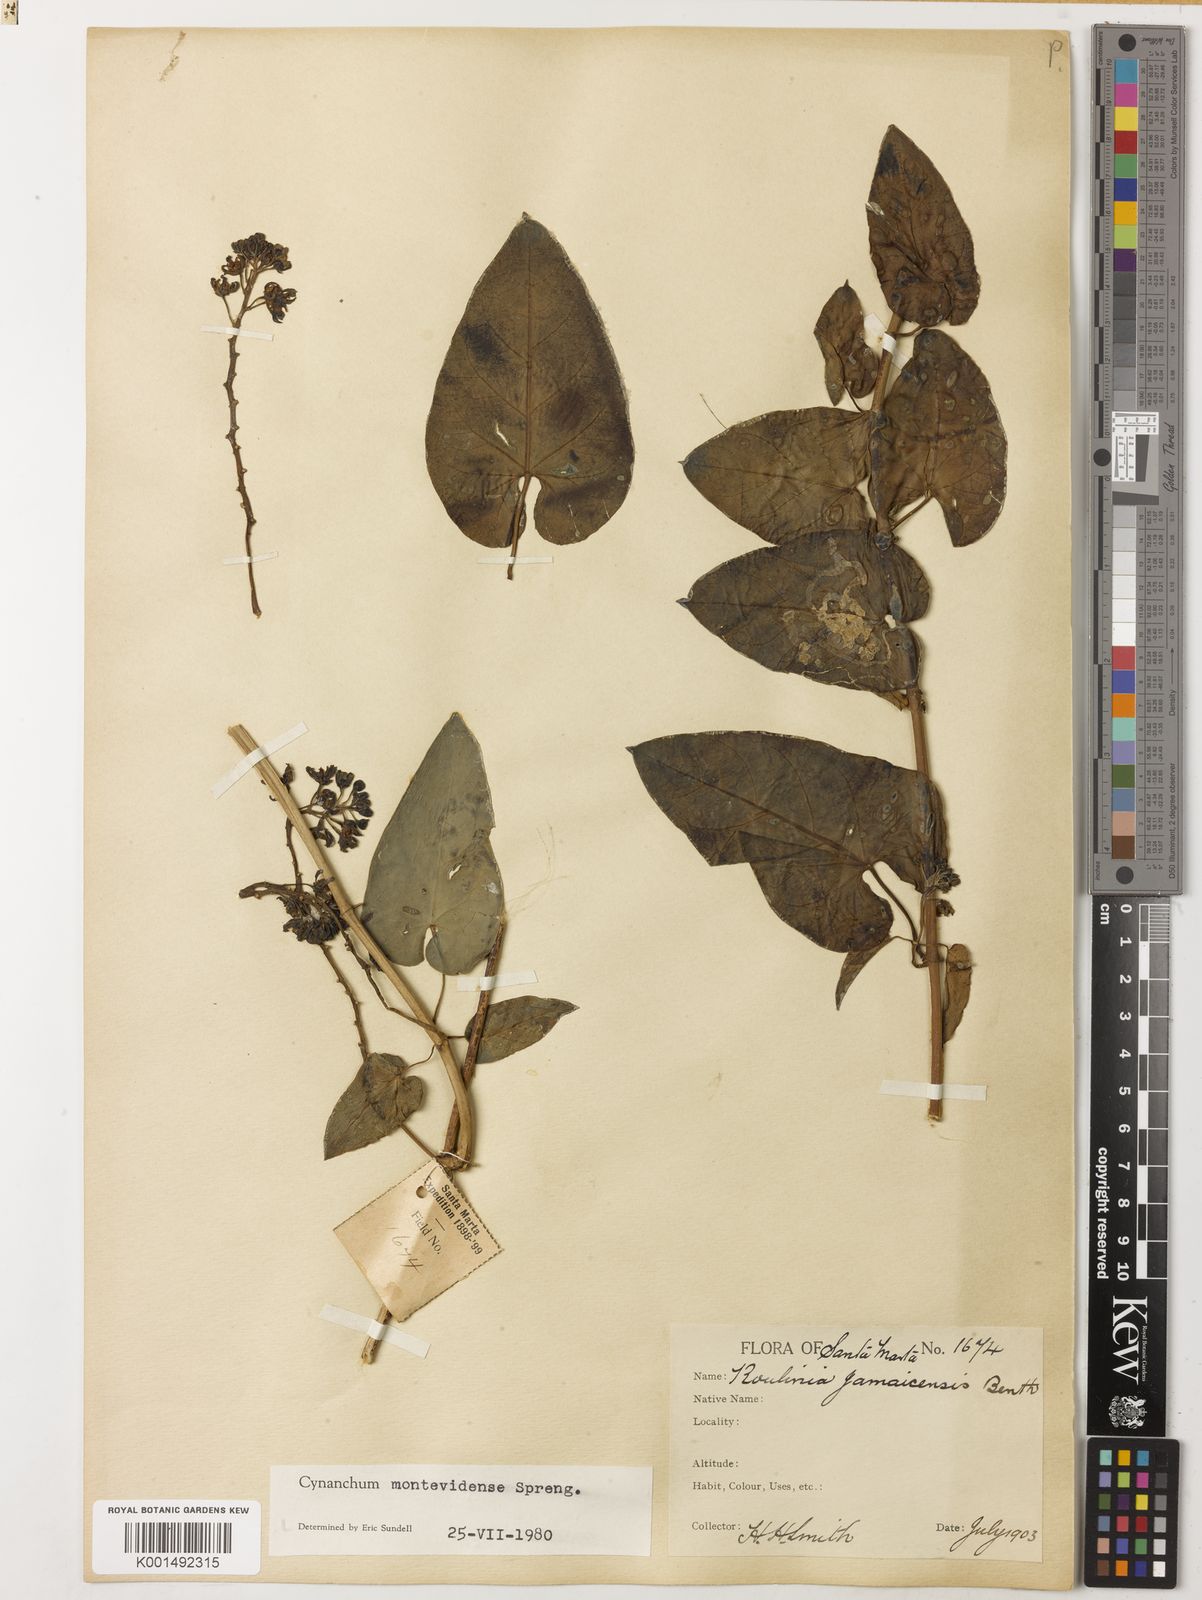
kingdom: Plantae
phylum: Tracheophyta
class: Magnoliopsida
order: Gentianales
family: Apocynaceae
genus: Cynanchum
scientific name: Cynanchum montevidense
